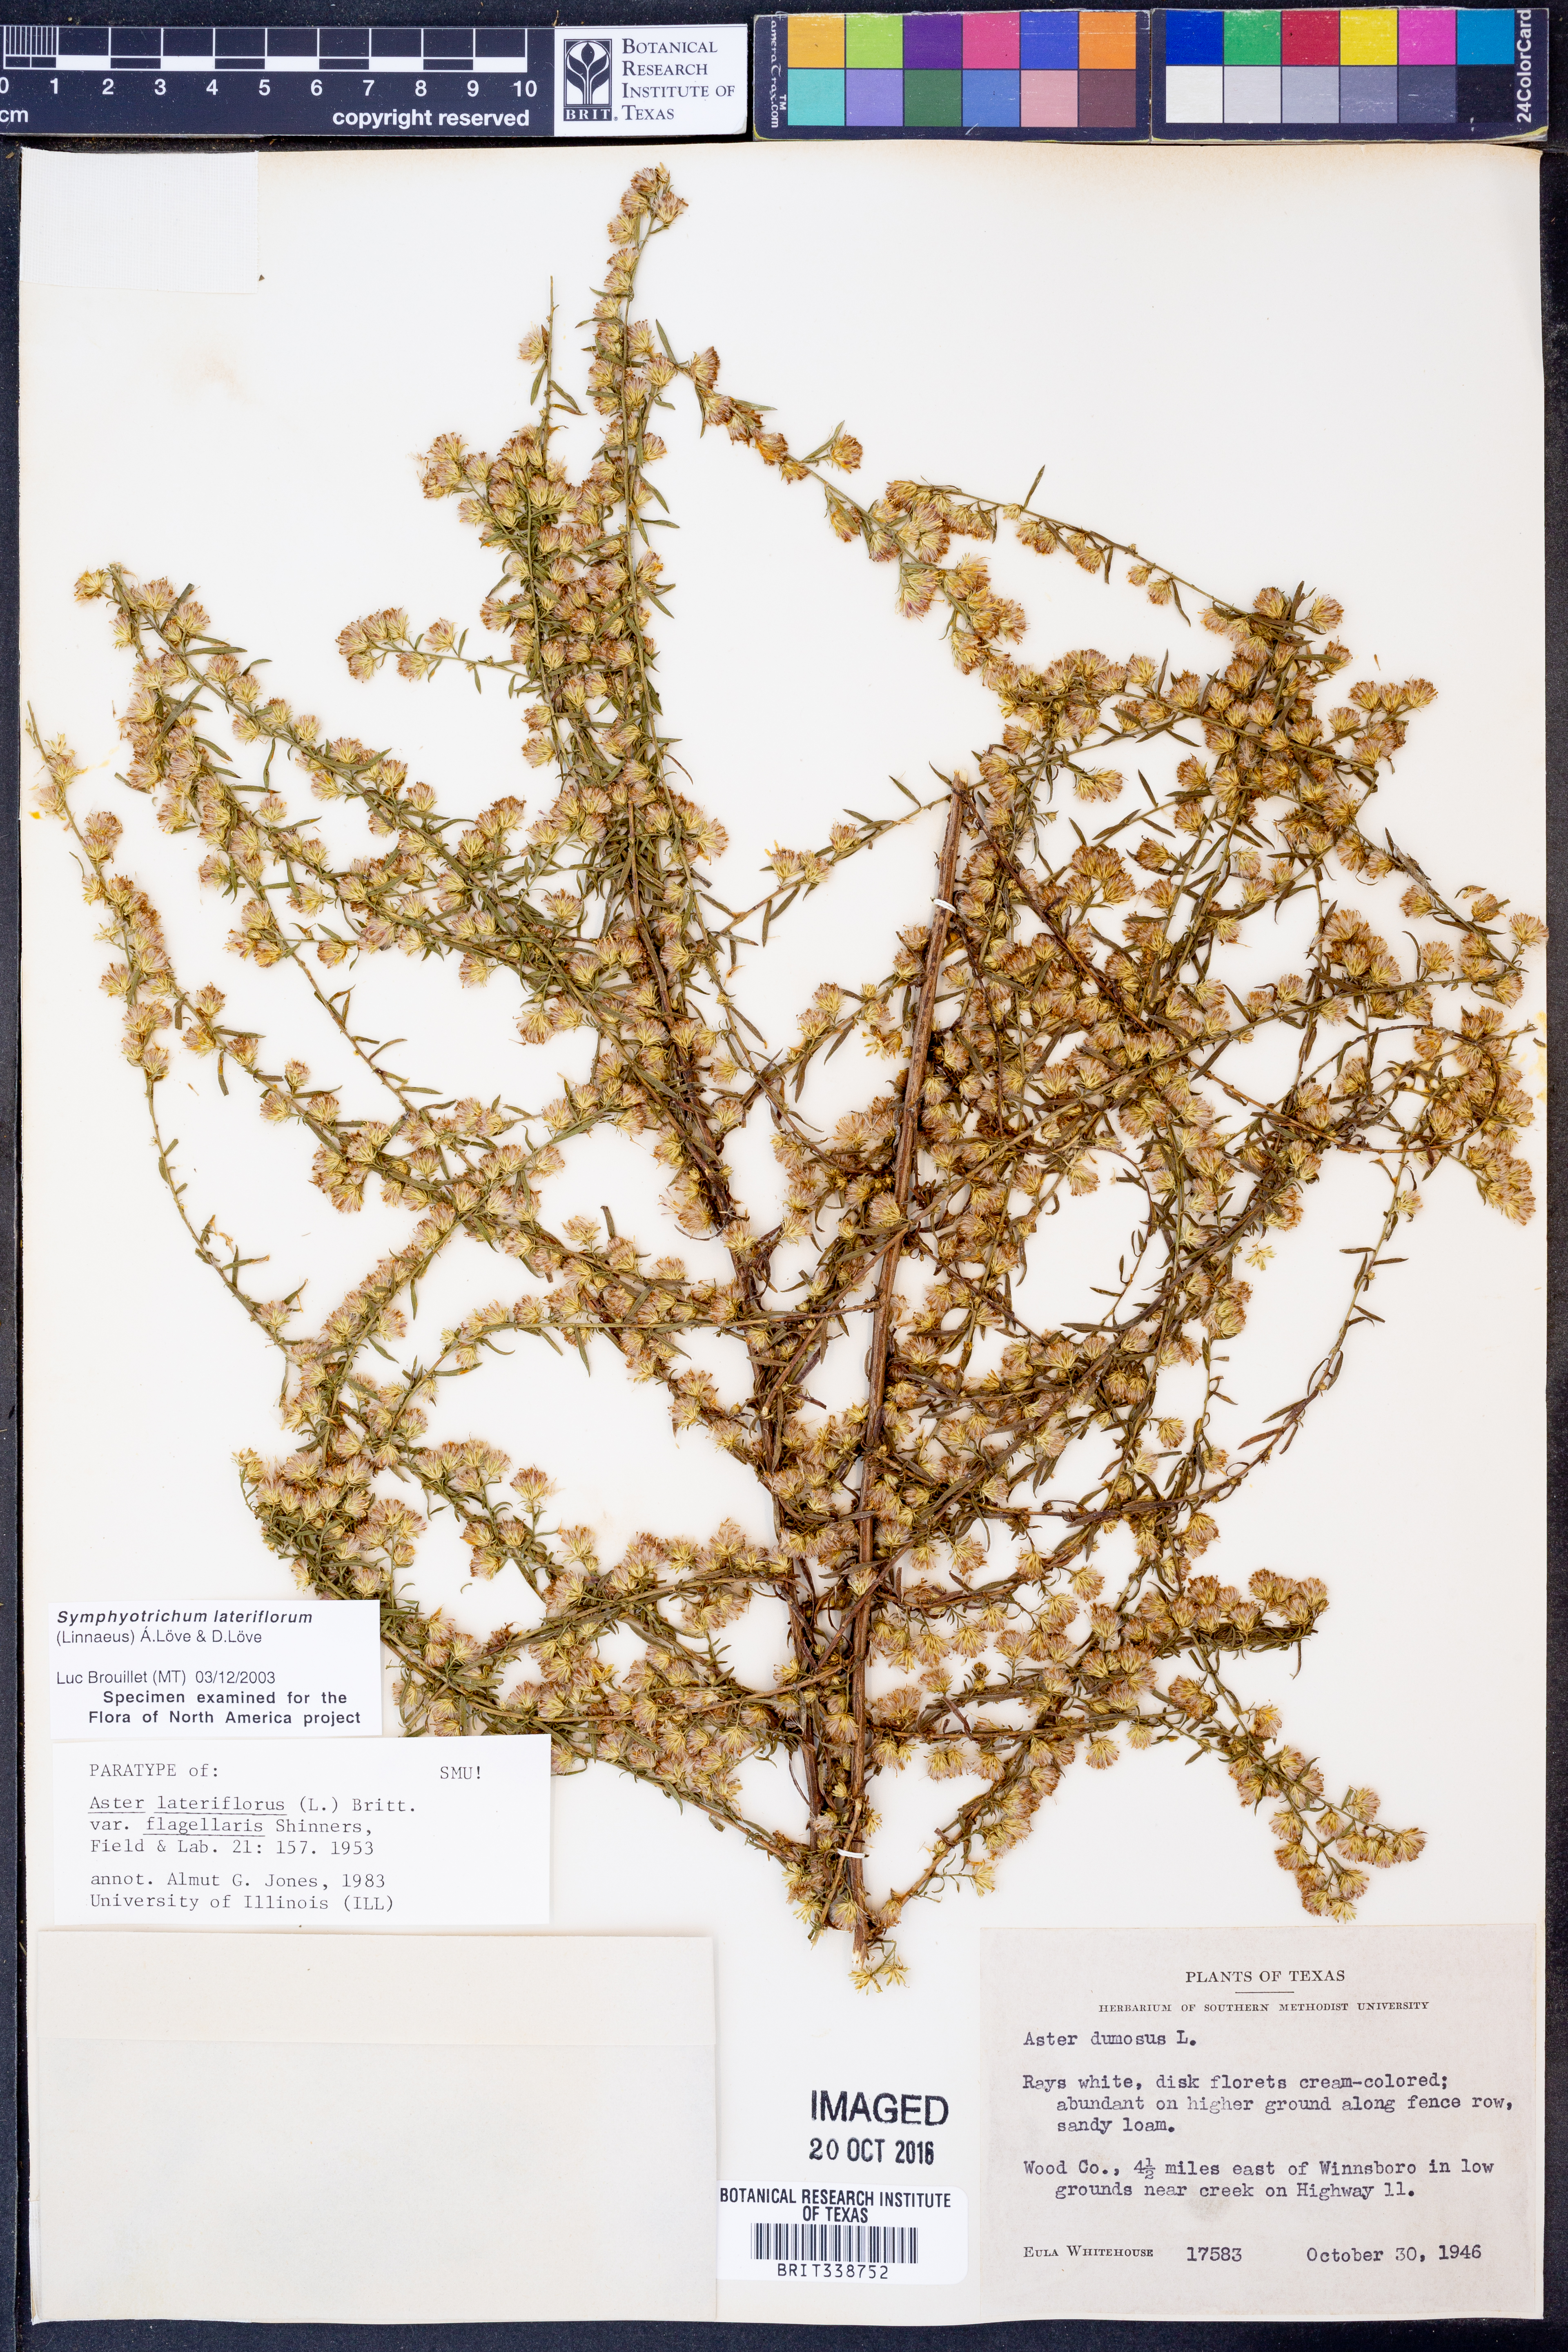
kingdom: Plantae
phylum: Tracheophyta
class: Magnoliopsida
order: Asterales
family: Asteraceae
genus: Symphyotrichum
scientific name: Symphyotrichum lateriflorum
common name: Calico aster
